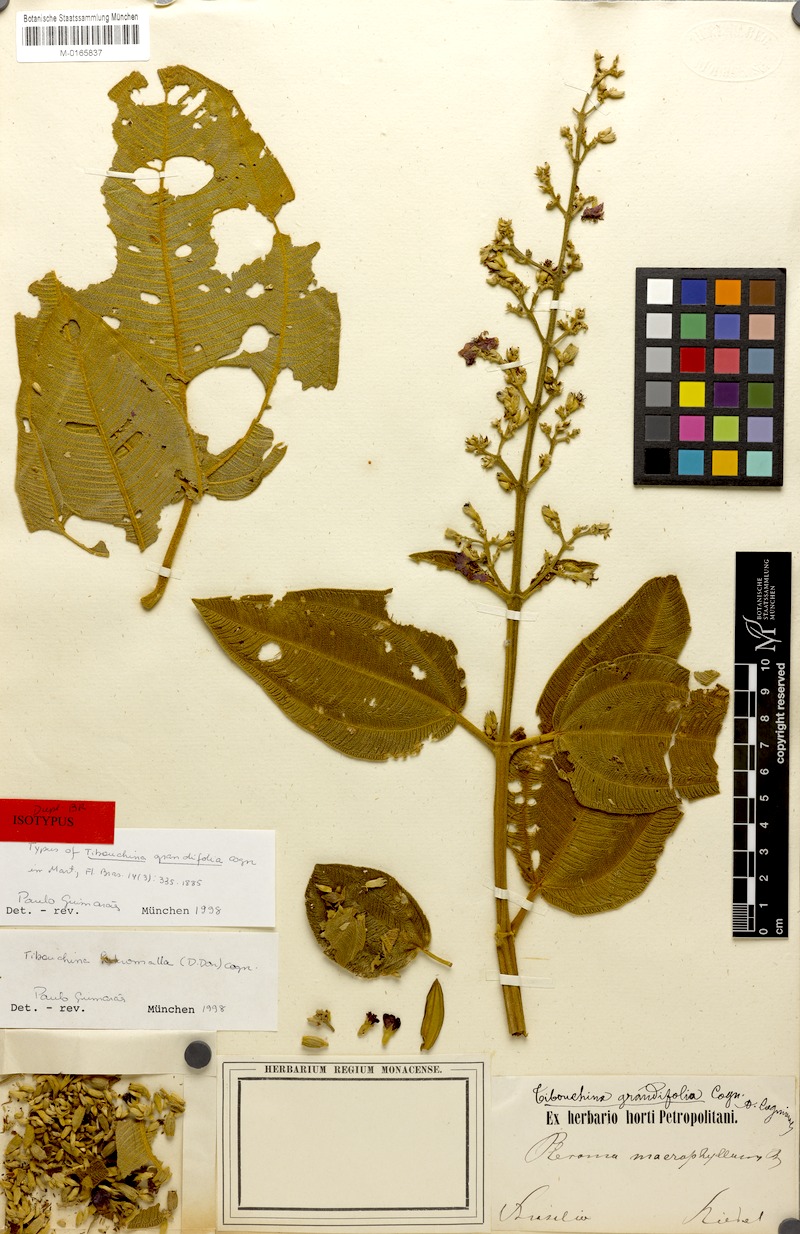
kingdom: Plantae
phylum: Tracheophyta
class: Magnoliopsida
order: Myrtales
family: Melastomataceae
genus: Pleroma
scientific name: Pleroma heteromallum
